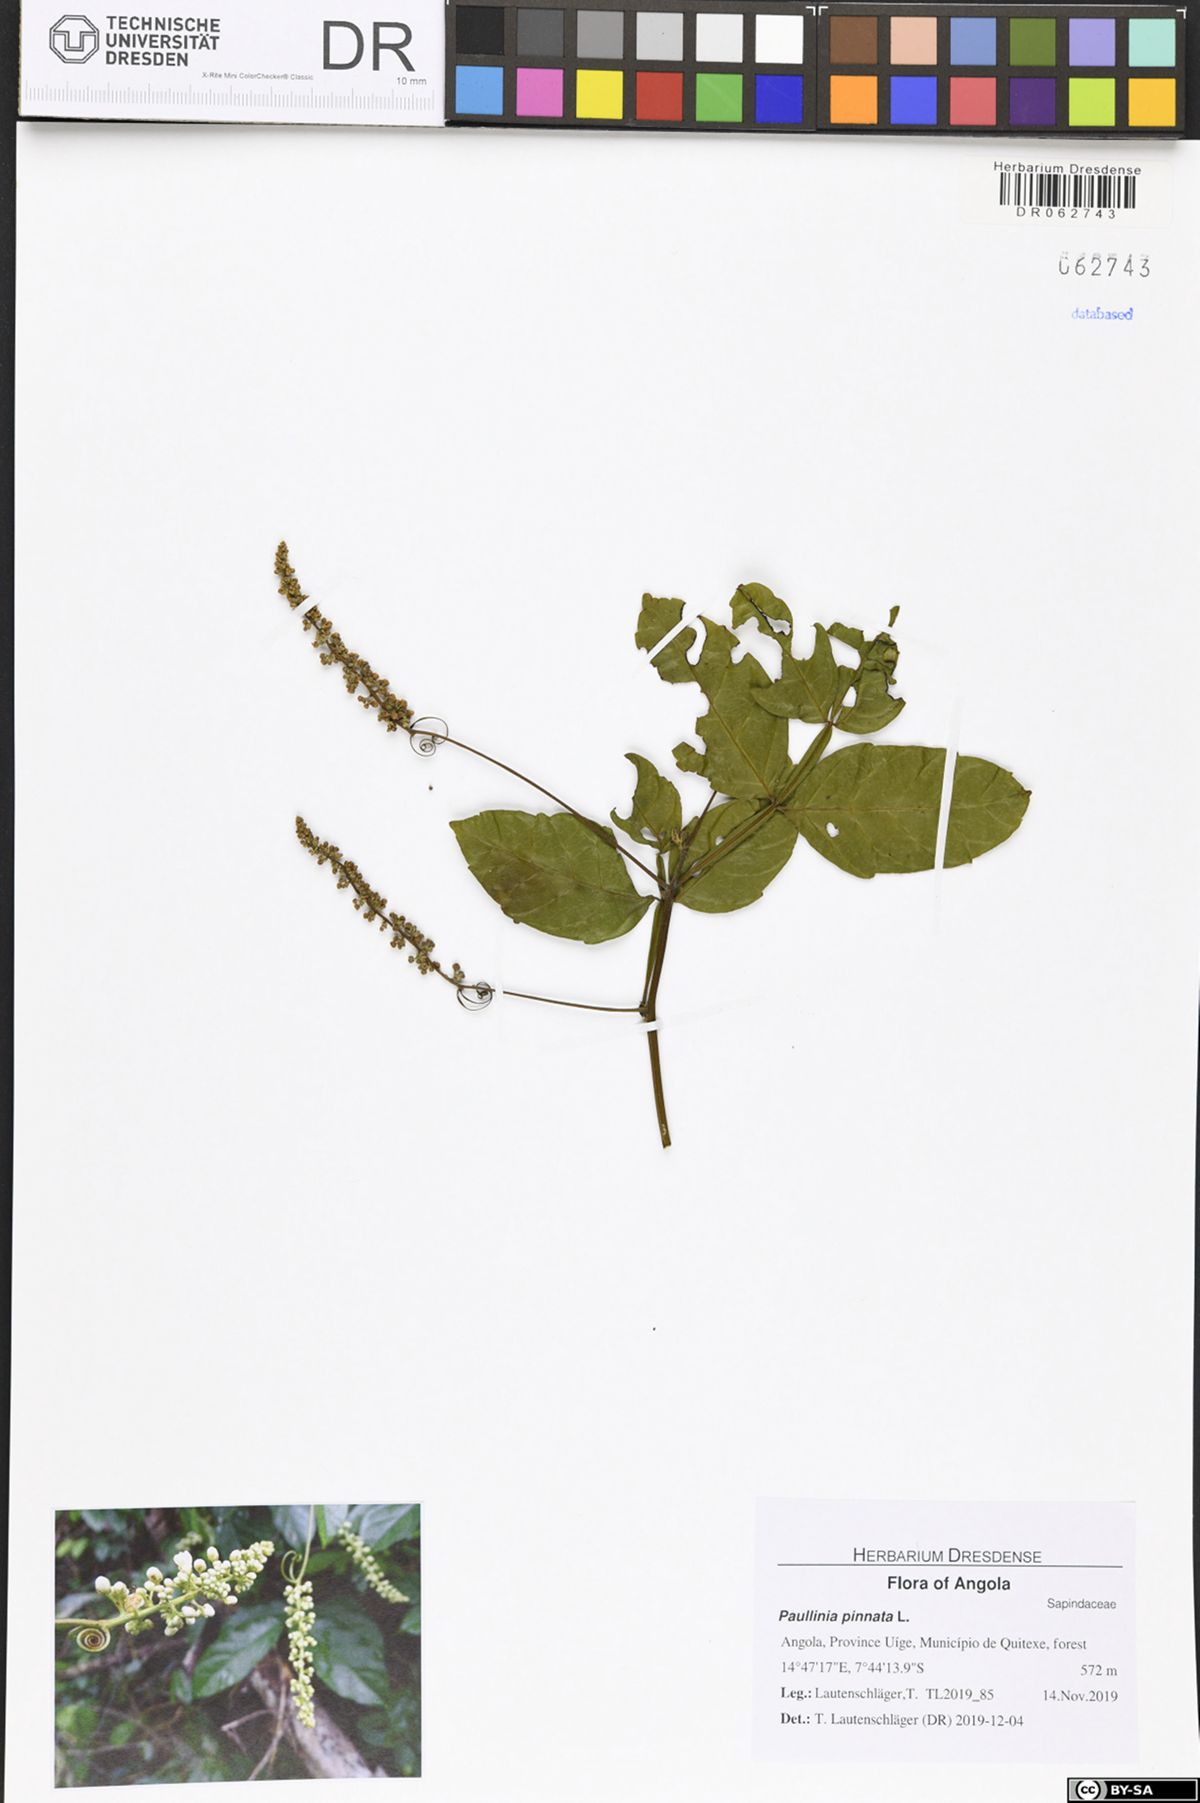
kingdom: Plantae
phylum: Tracheophyta
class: Magnoliopsida
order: Sapindales
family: Sapindaceae
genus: Paullinia
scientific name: Paullinia pinnata
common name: Barbasco
